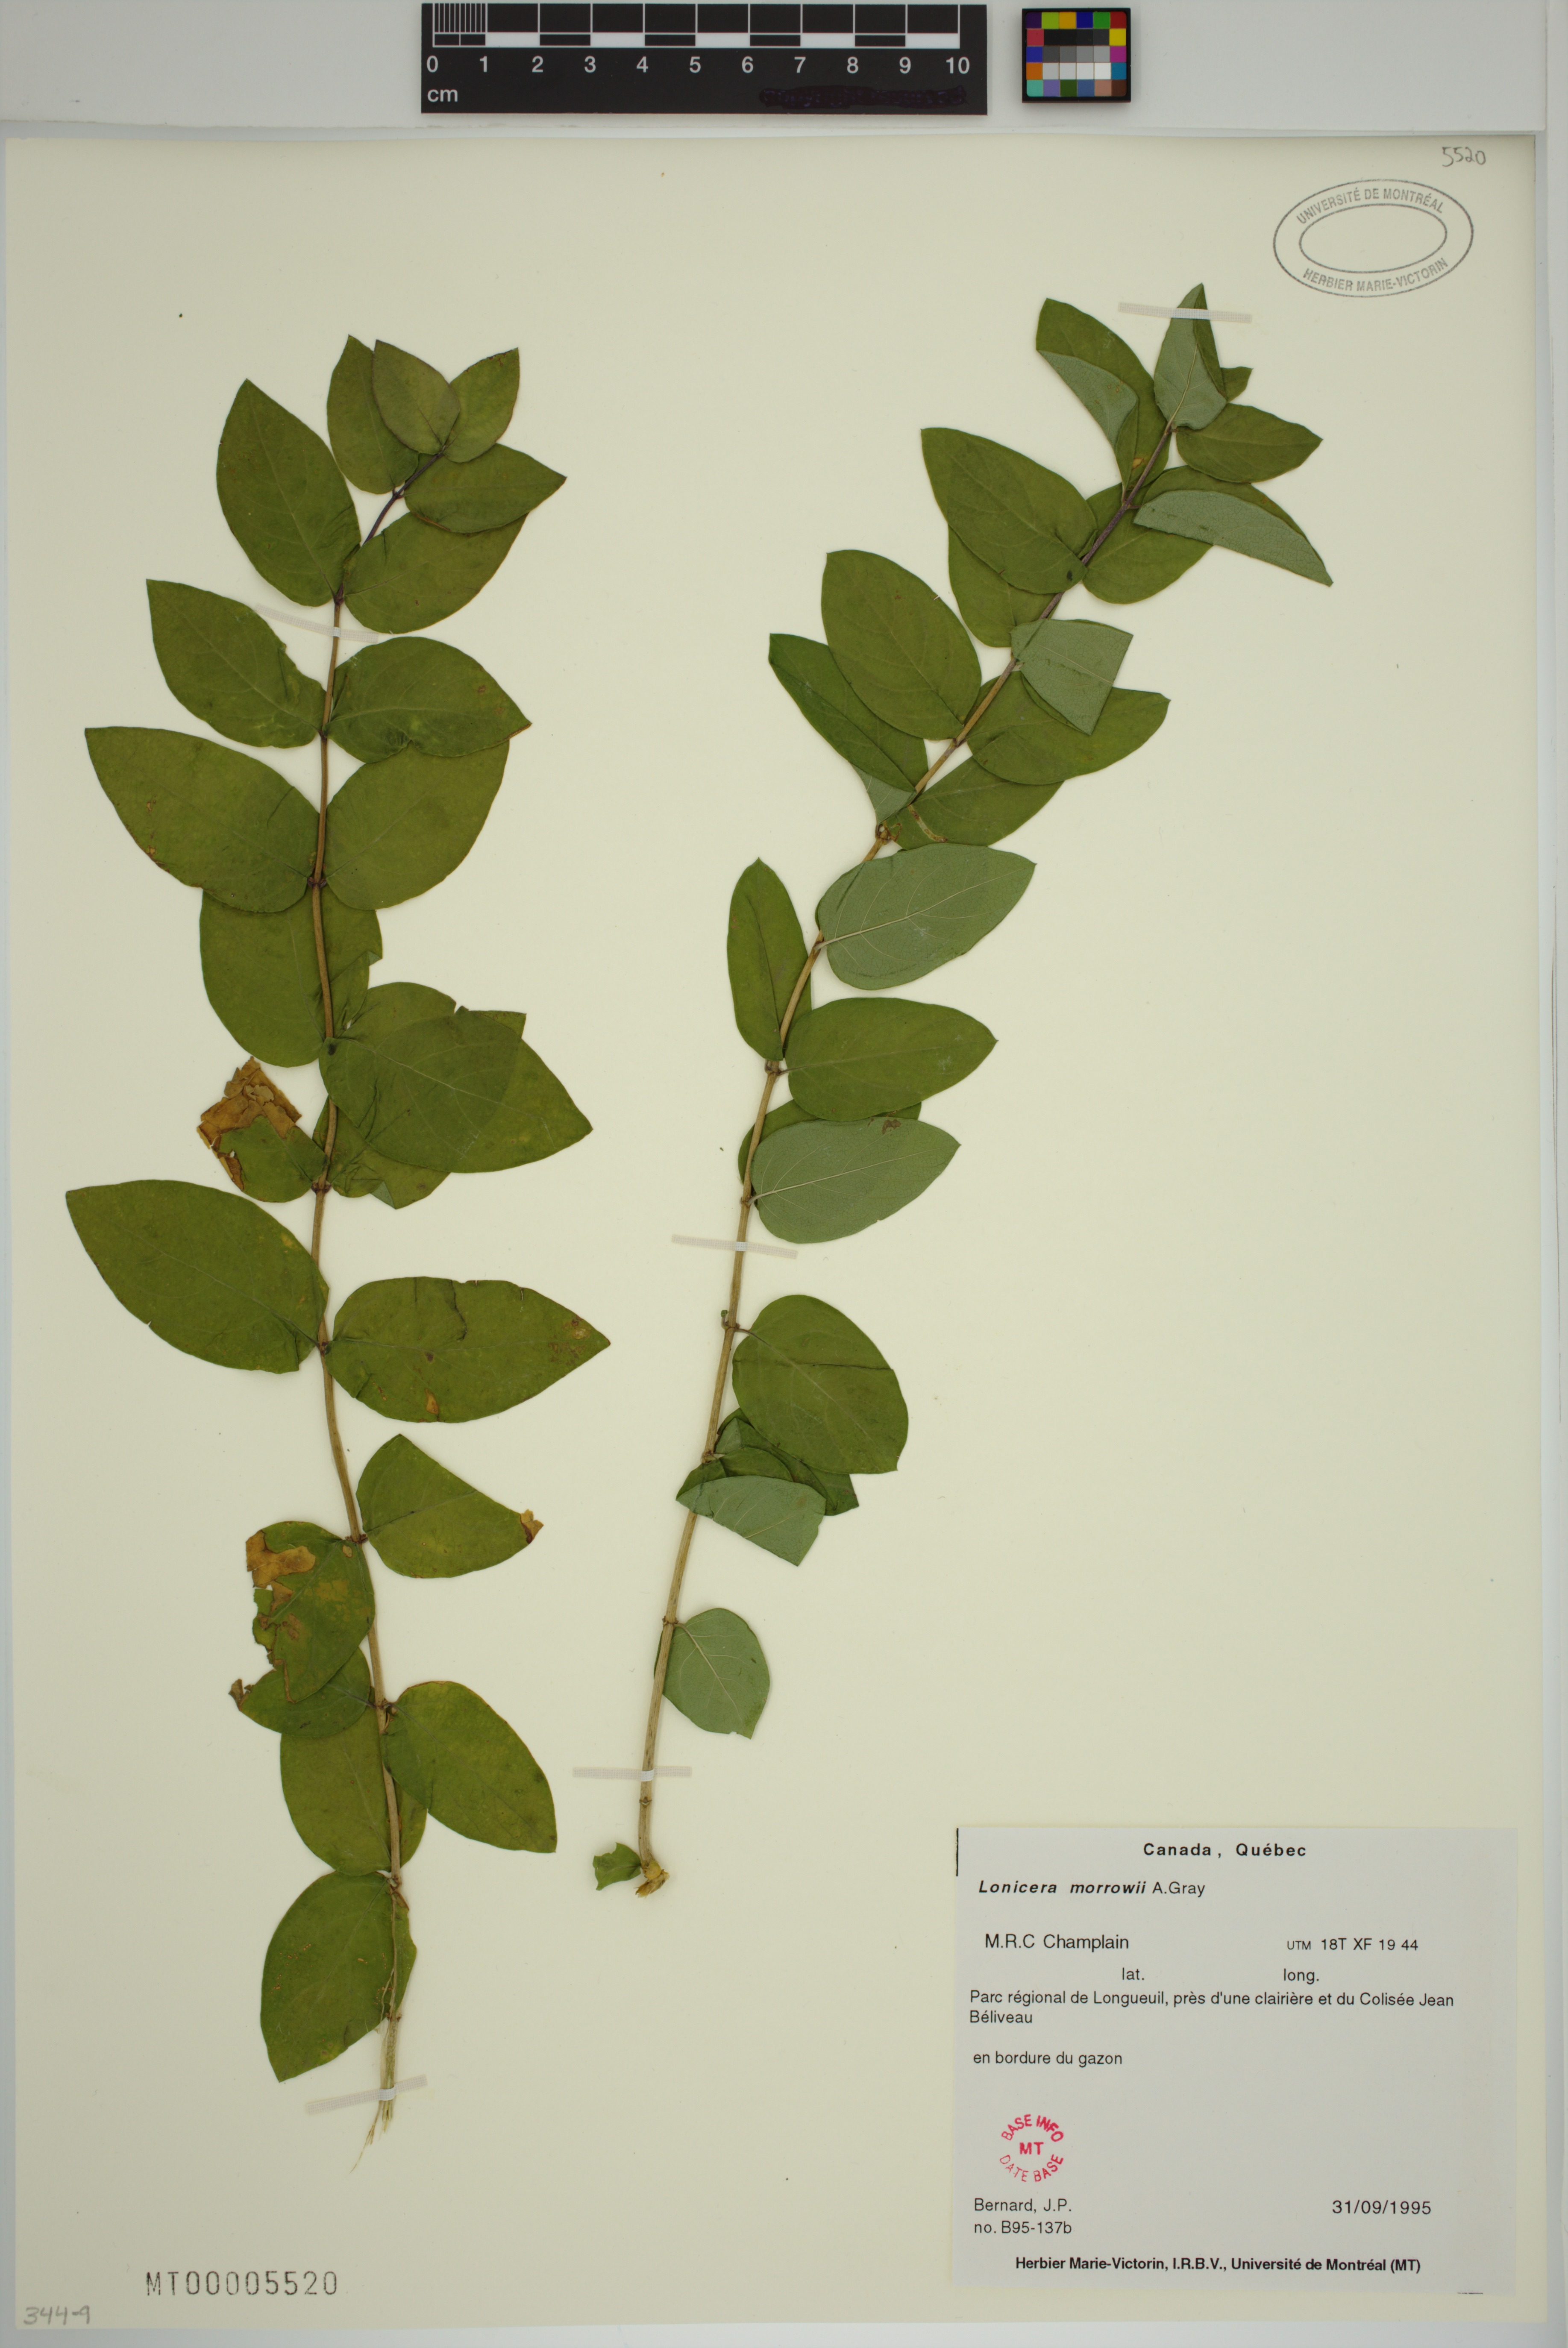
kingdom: Plantae
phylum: Tracheophyta
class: Magnoliopsida
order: Dipsacales
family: Caprifoliaceae
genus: Lonicera
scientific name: Lonicera tatarica
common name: Tatarian honeysuckle
